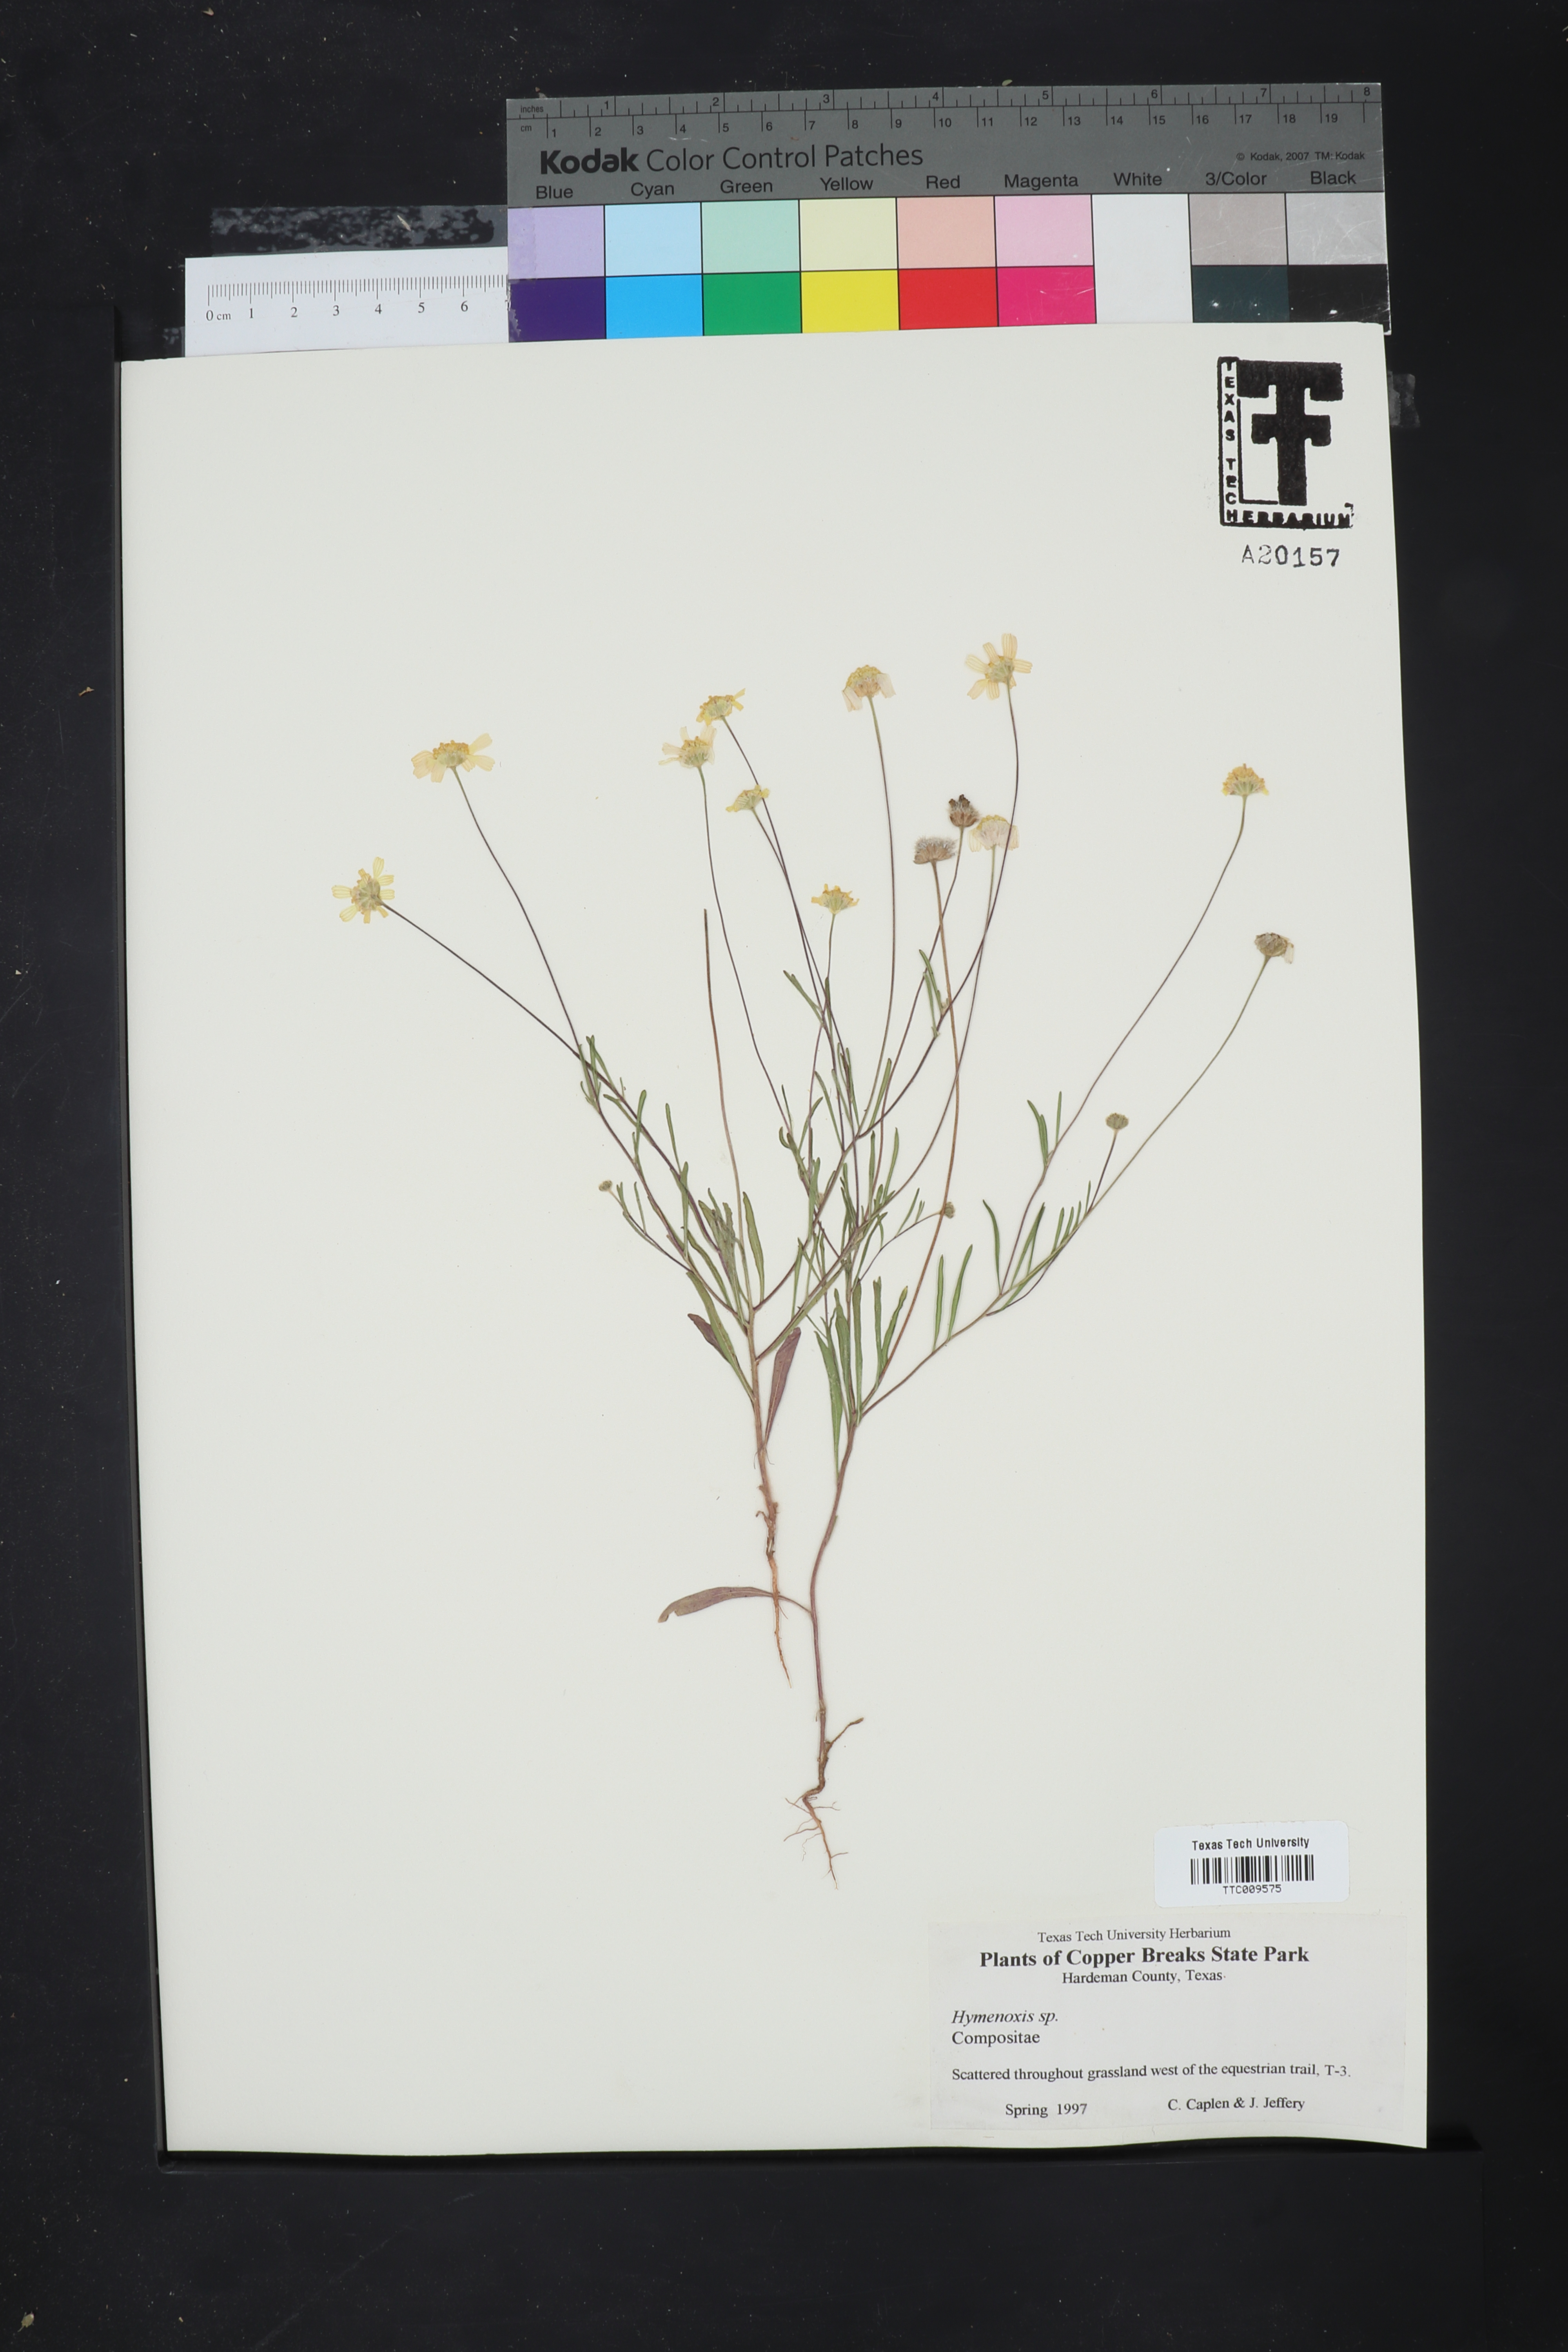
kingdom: Plantae
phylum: Tracheophyta
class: Magnoliopsida
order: Asterales
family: Asteraceae
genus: Hymenoxys
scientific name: Hymenoxys
